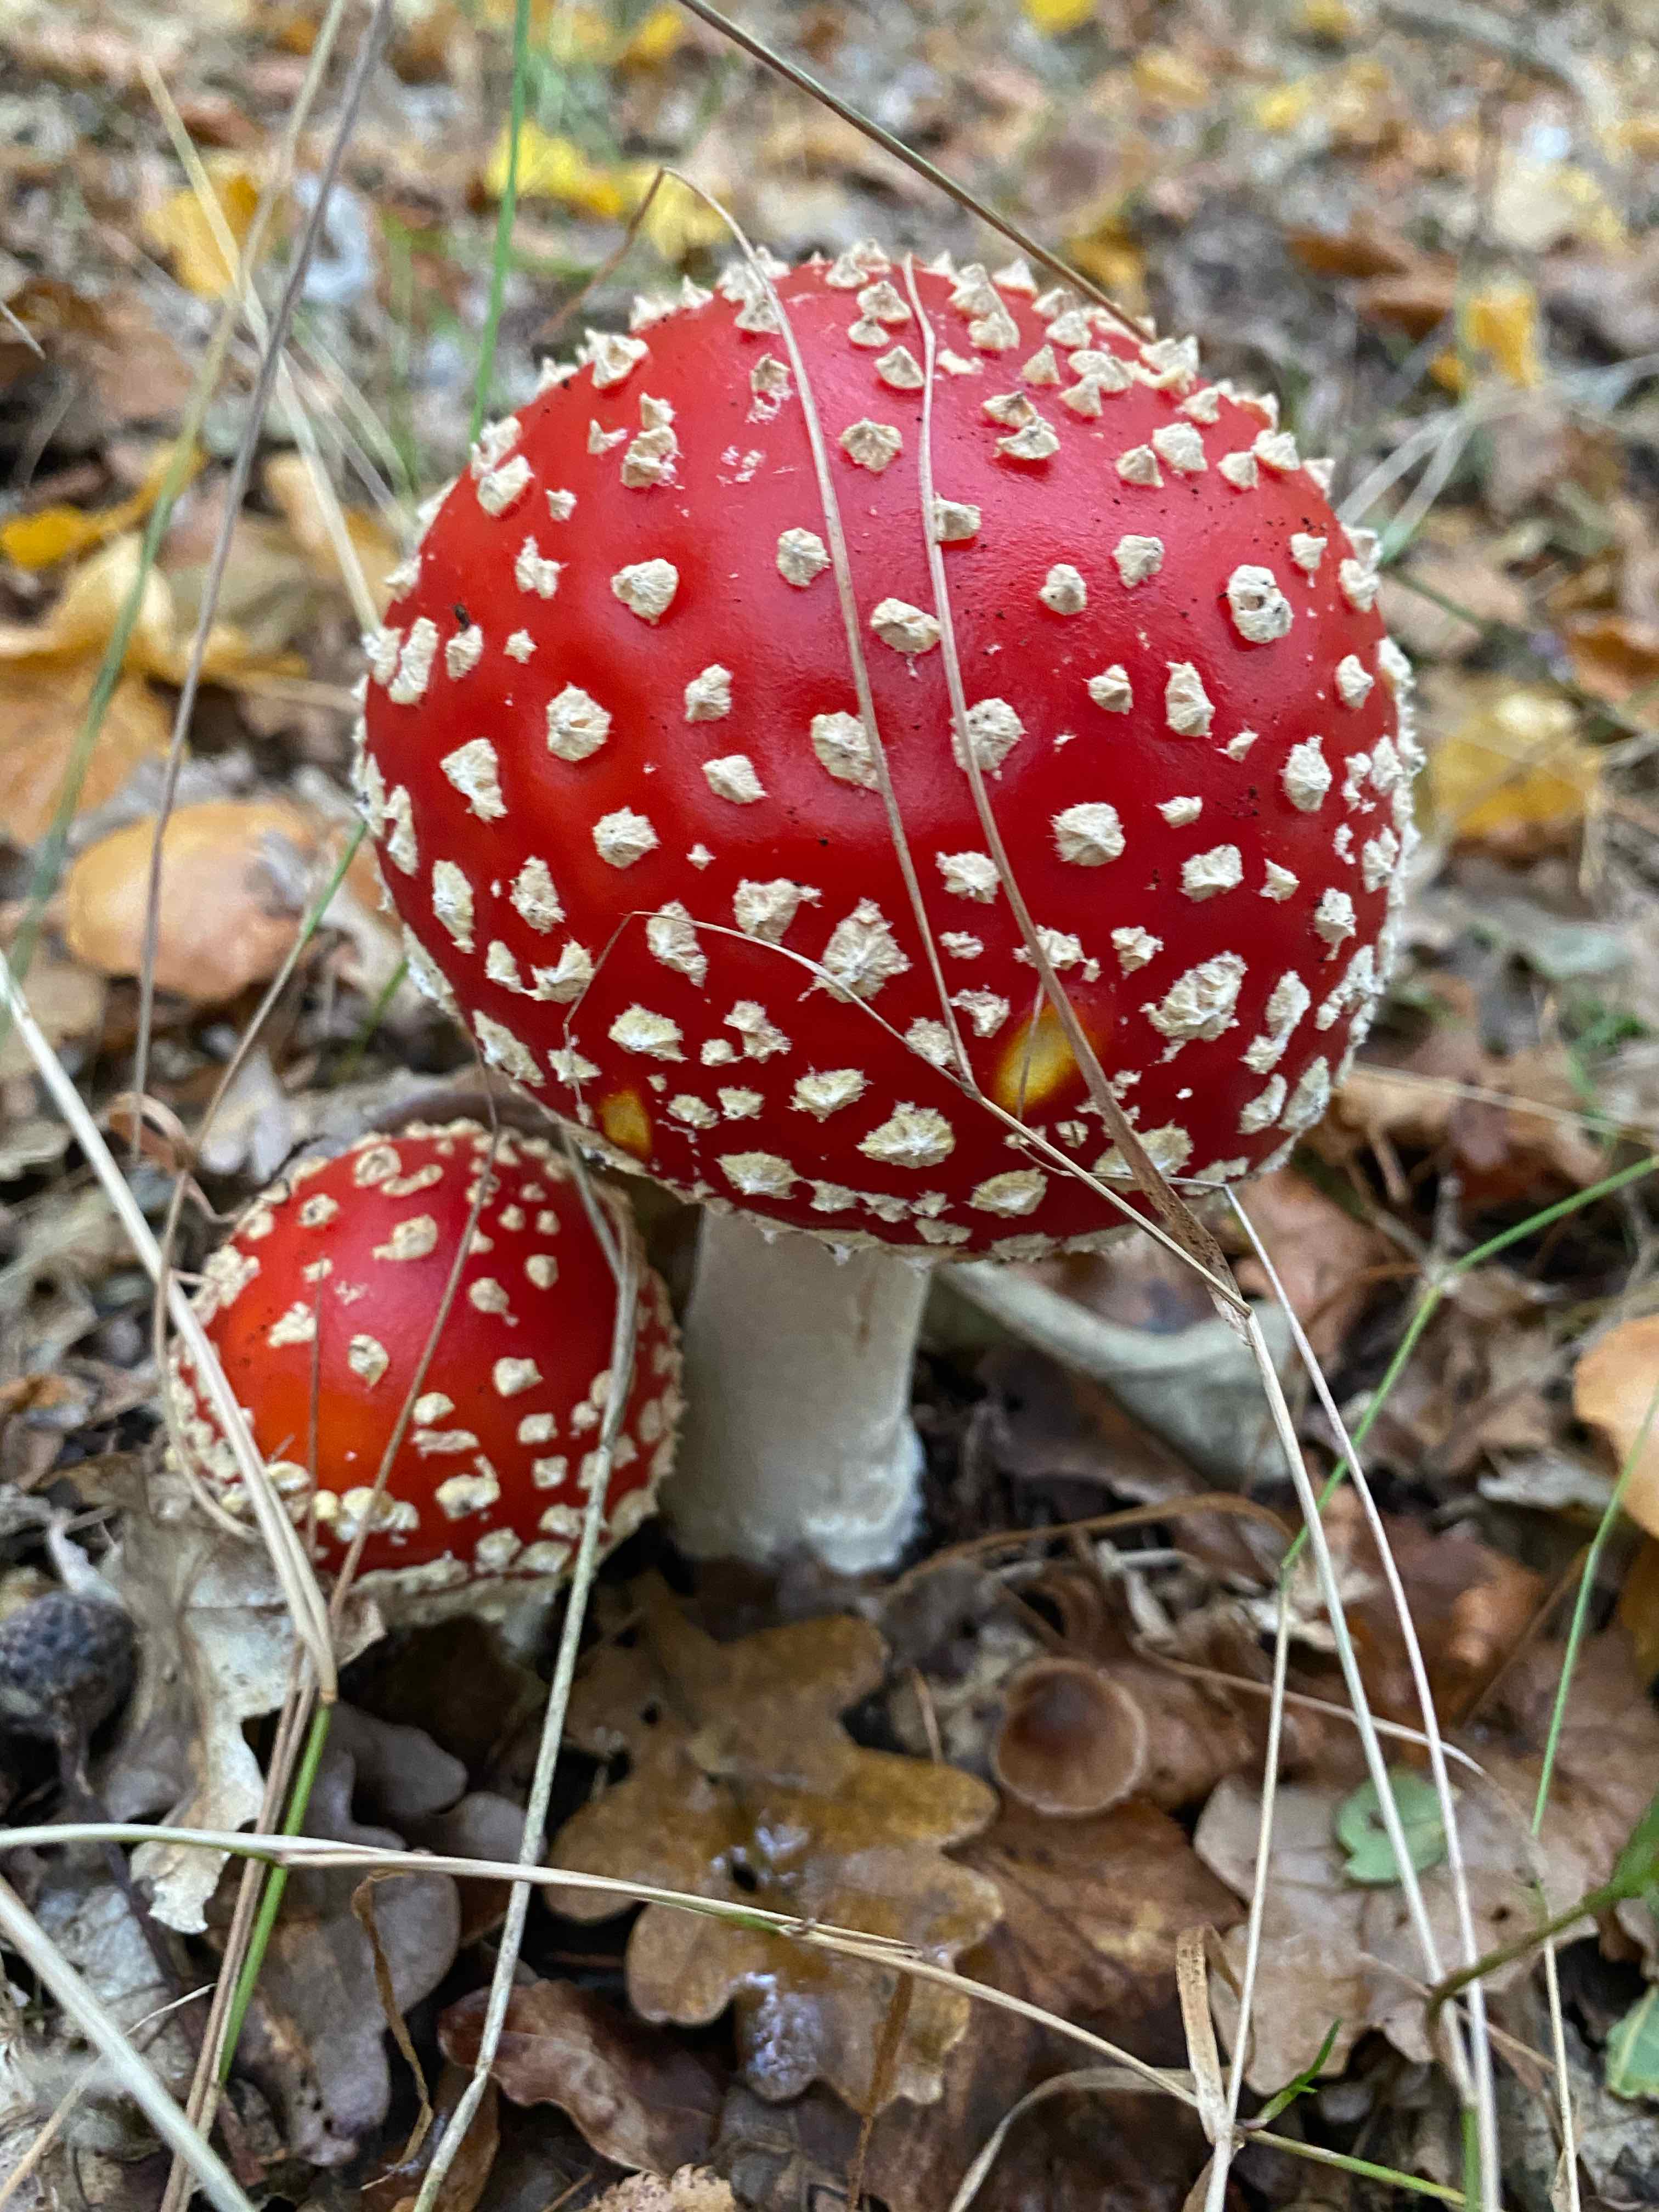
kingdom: Fungi
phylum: Basidiomycota
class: Agaricomycetes
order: Agaricales
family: Amanitaceae
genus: Amanita
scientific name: Amanita muscaria
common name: rød fluesvamp
